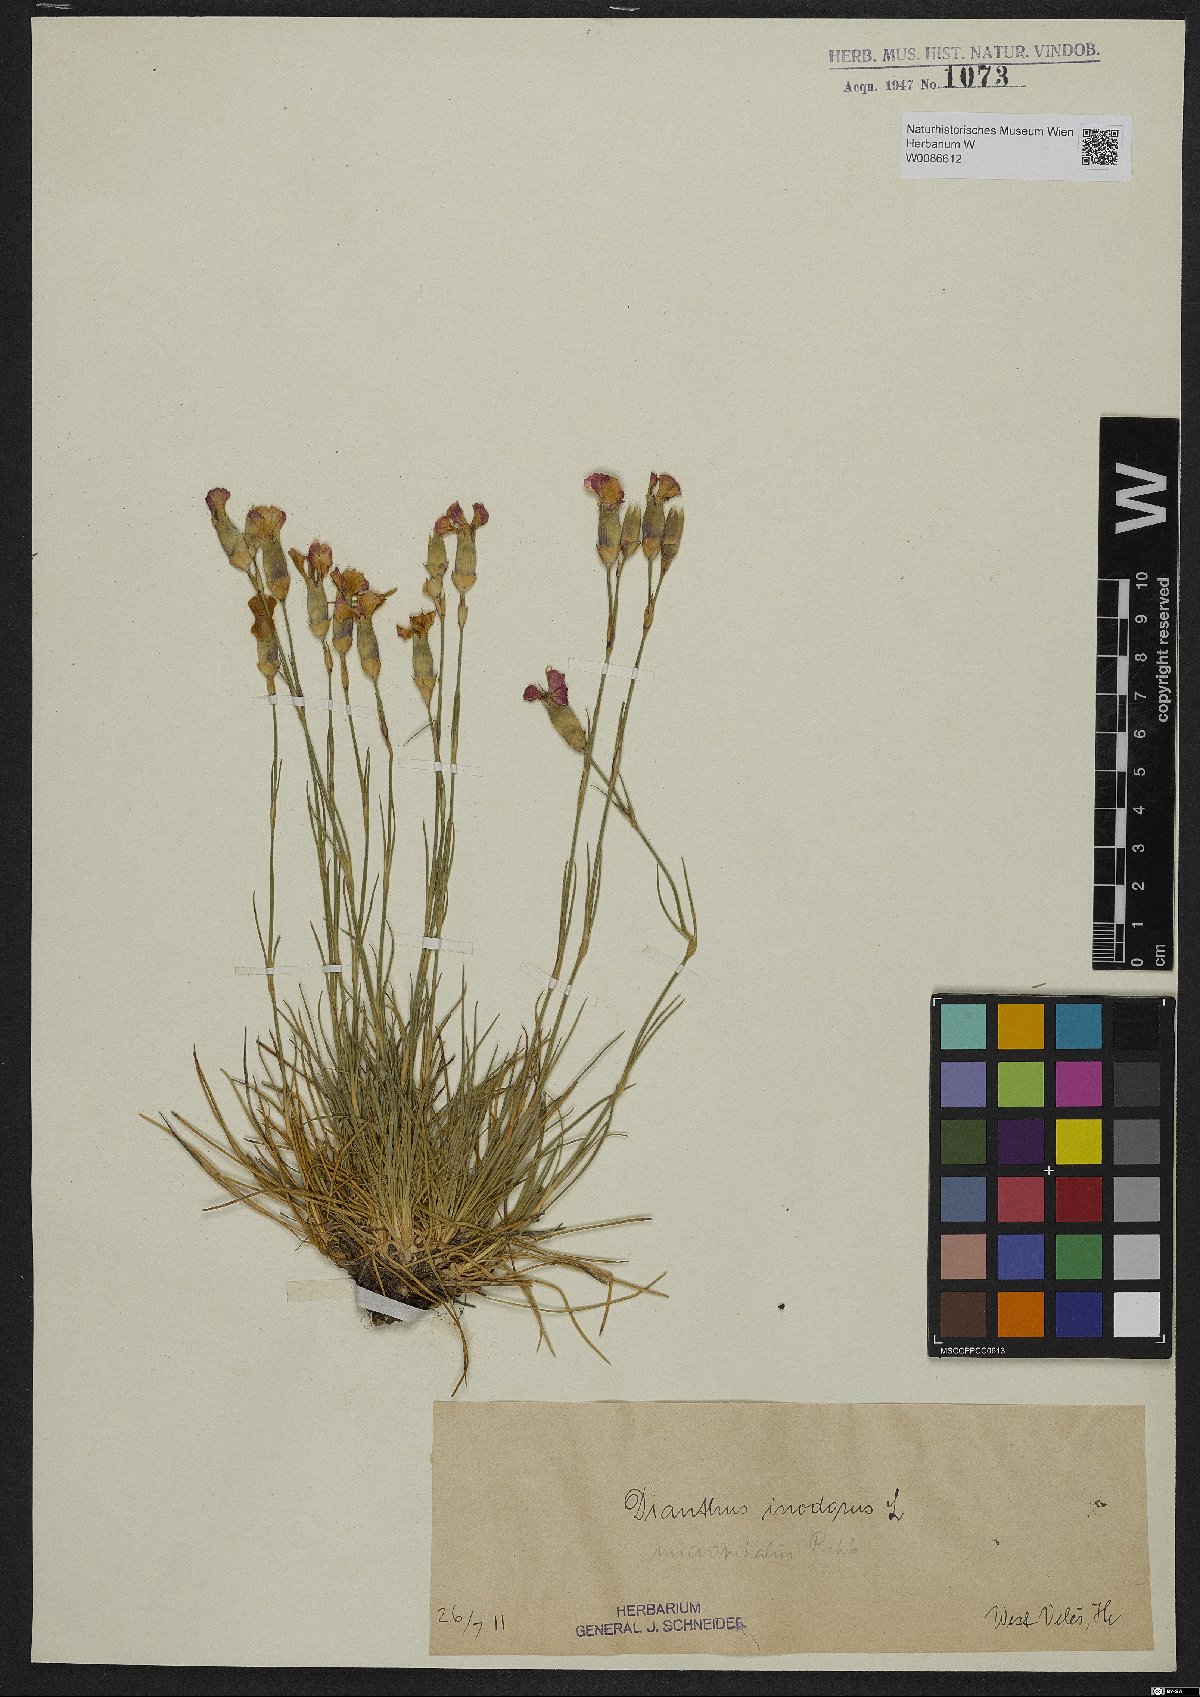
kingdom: Plantae
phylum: Tracheophyta
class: Magnoliopsida
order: Caryophyllales
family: Caryophyllaceae
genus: Dianthus
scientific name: Dianthus sylvestris
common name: Wood pink
